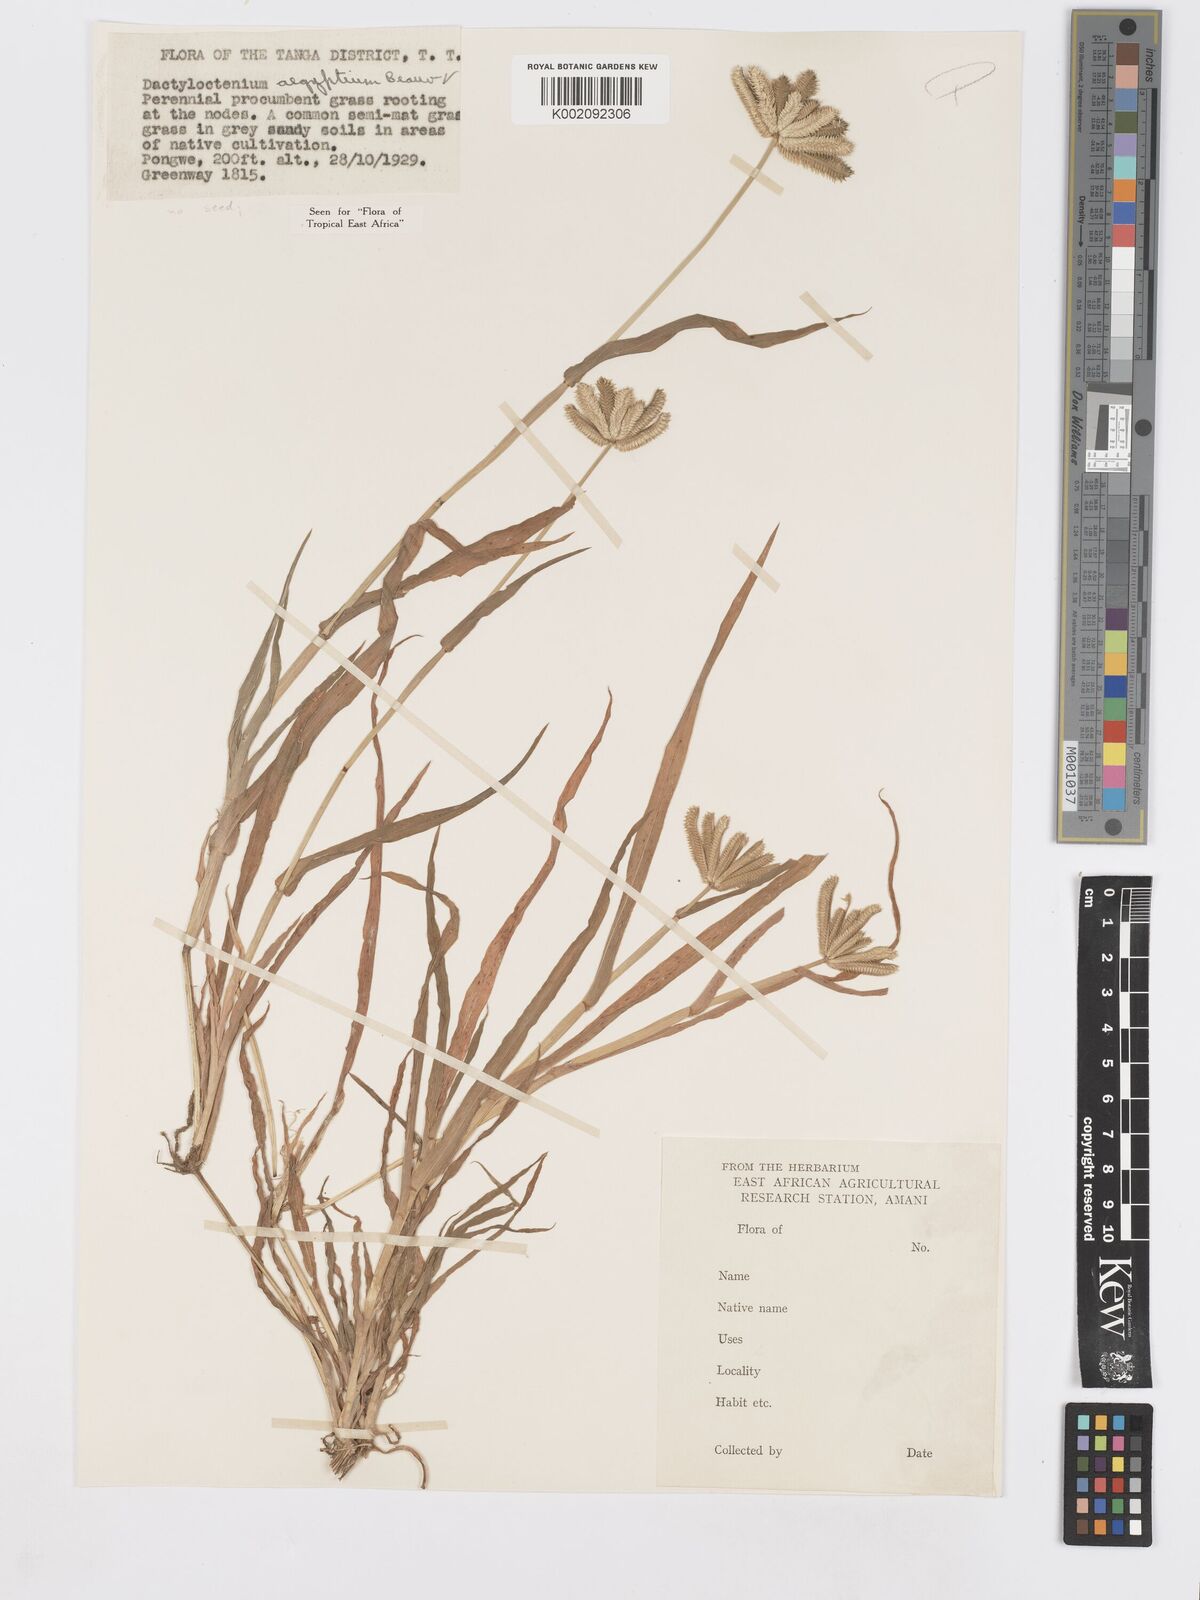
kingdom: Plantae
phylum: Tracheophyta
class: Liliopsida
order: Poales
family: Poaceae
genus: Dactyloctenium
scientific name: Dactyloctenium aegyptium
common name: Egyptian grass
